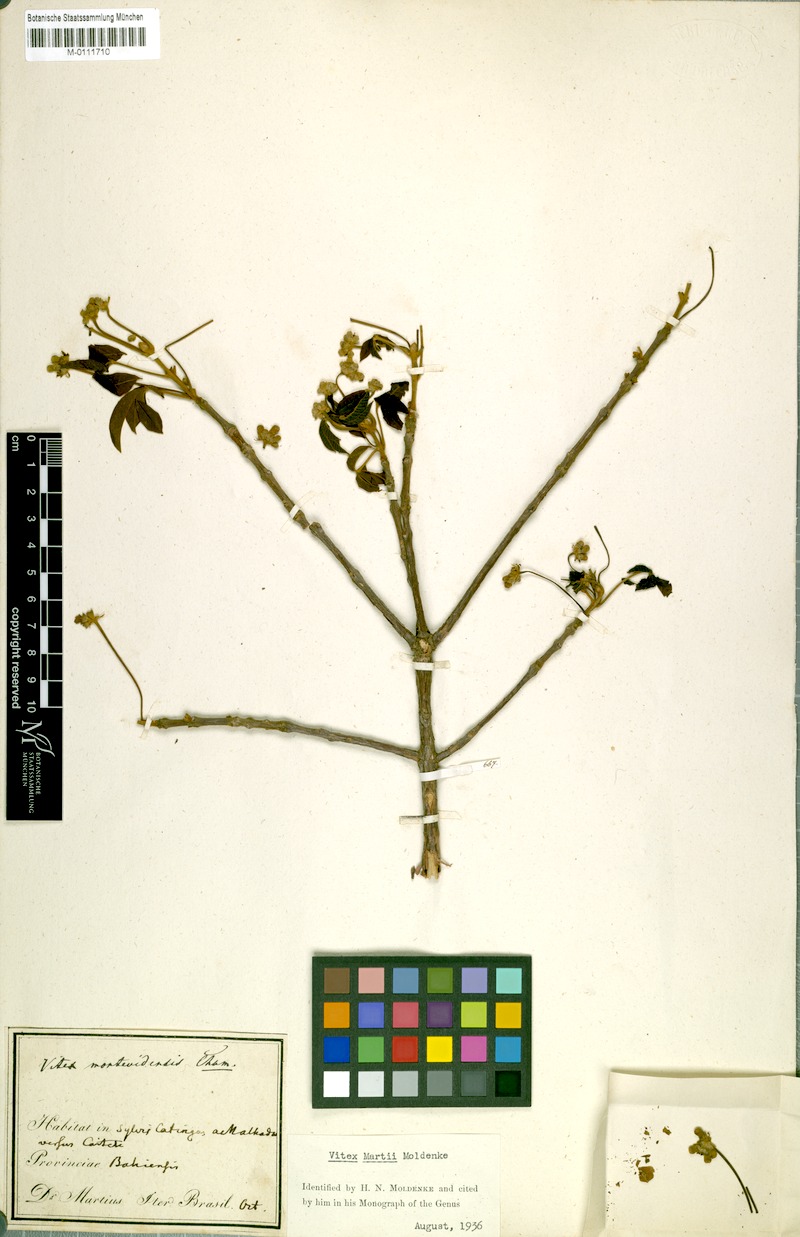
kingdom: Plantae
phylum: Tracheophyta
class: Magnoliopsida
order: Lamiales
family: Lamiaceae
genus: Vitex
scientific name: Vitex martii
